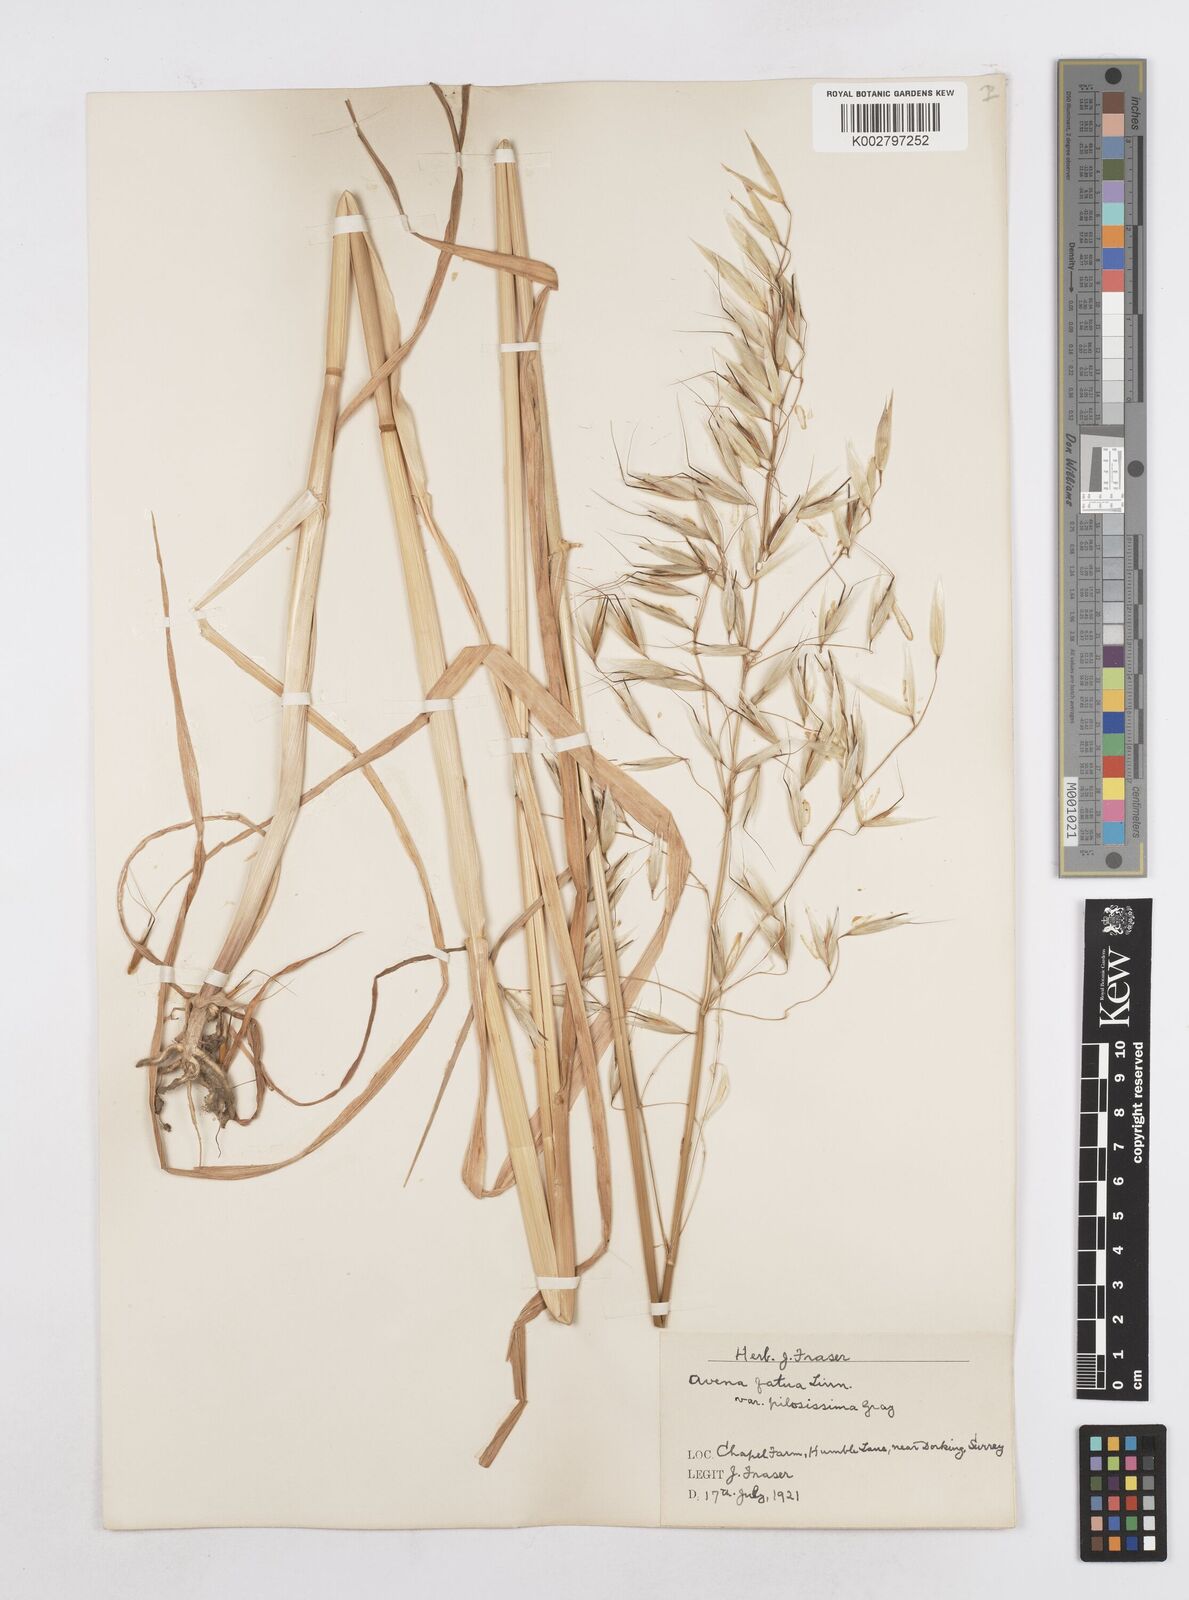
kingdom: Plantae
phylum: Tracheophyta
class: Liliopsida
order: Poales
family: Poaceae
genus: Avena
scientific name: Avena fatua
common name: Wild oat
